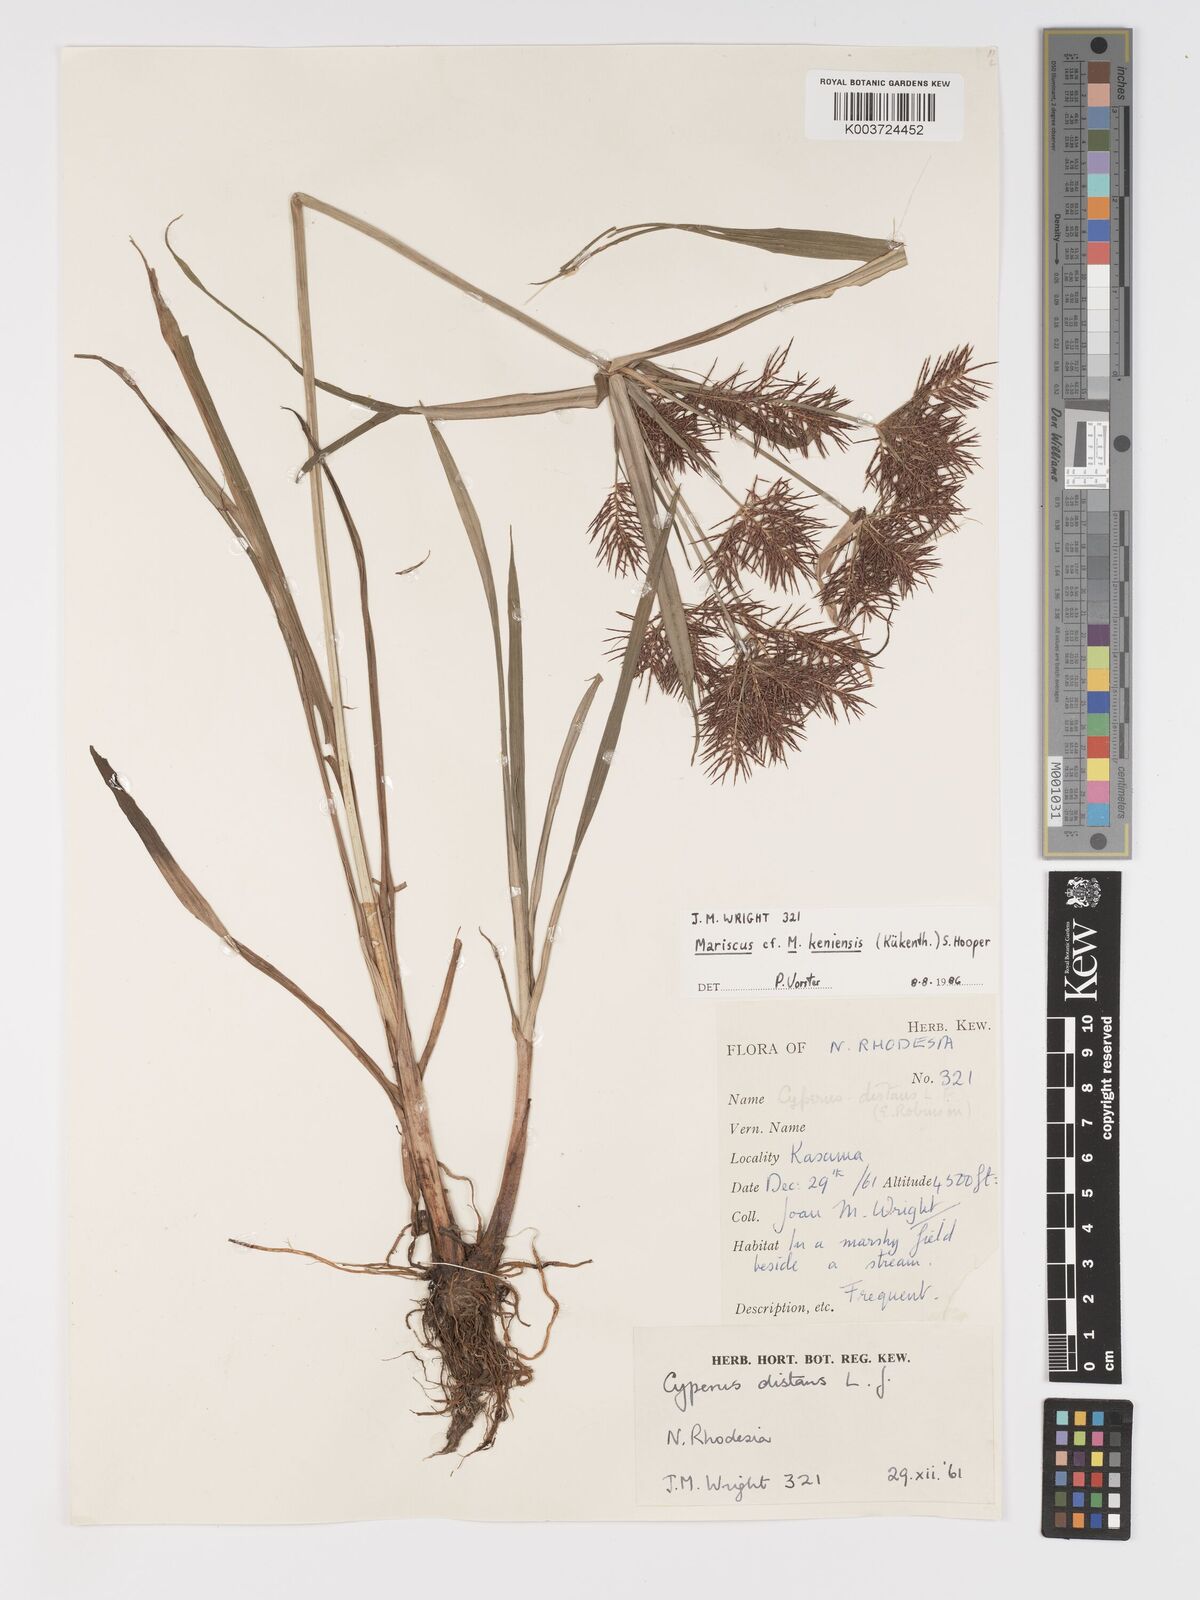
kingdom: Plantae
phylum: Tracheophyta
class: Liliopsida
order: Poales
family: Cyperaceae
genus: Cyperus
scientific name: Cyperus
